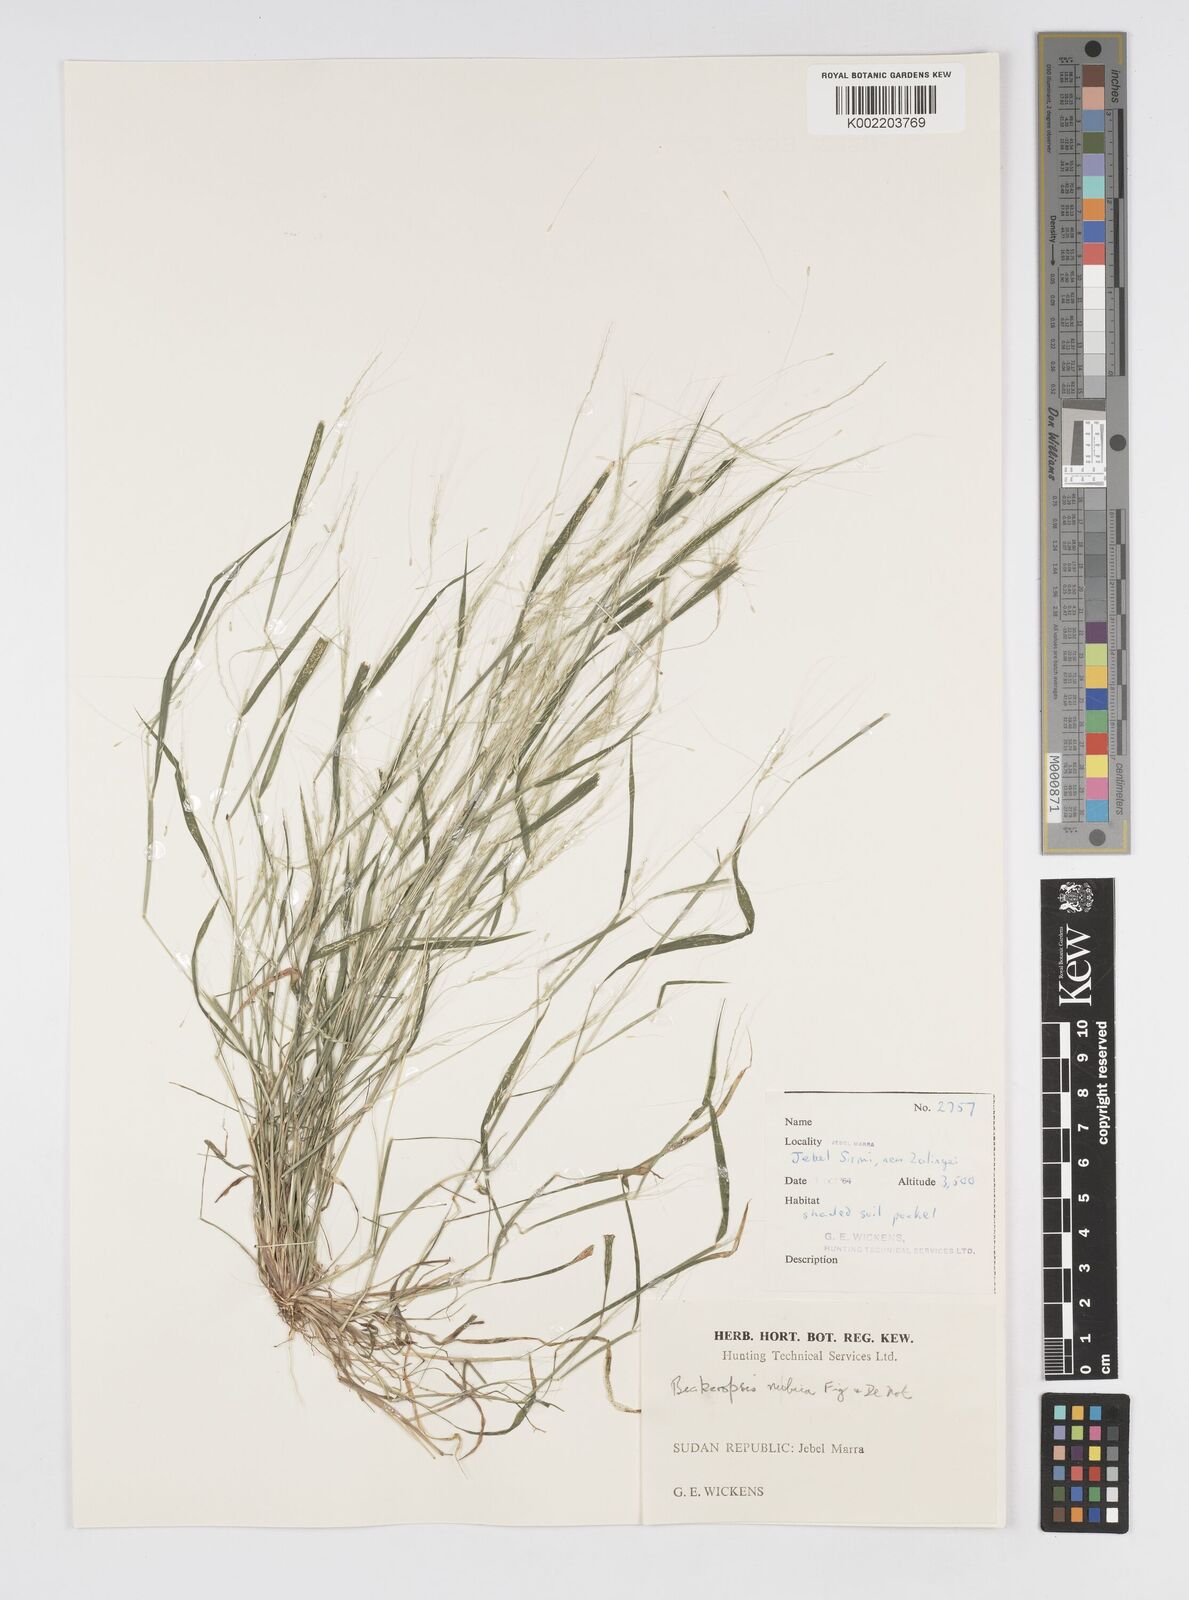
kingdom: Plantae
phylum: Tracheophyta
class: Liliopsida
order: Poales
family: Poaceae
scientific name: Poaceae
